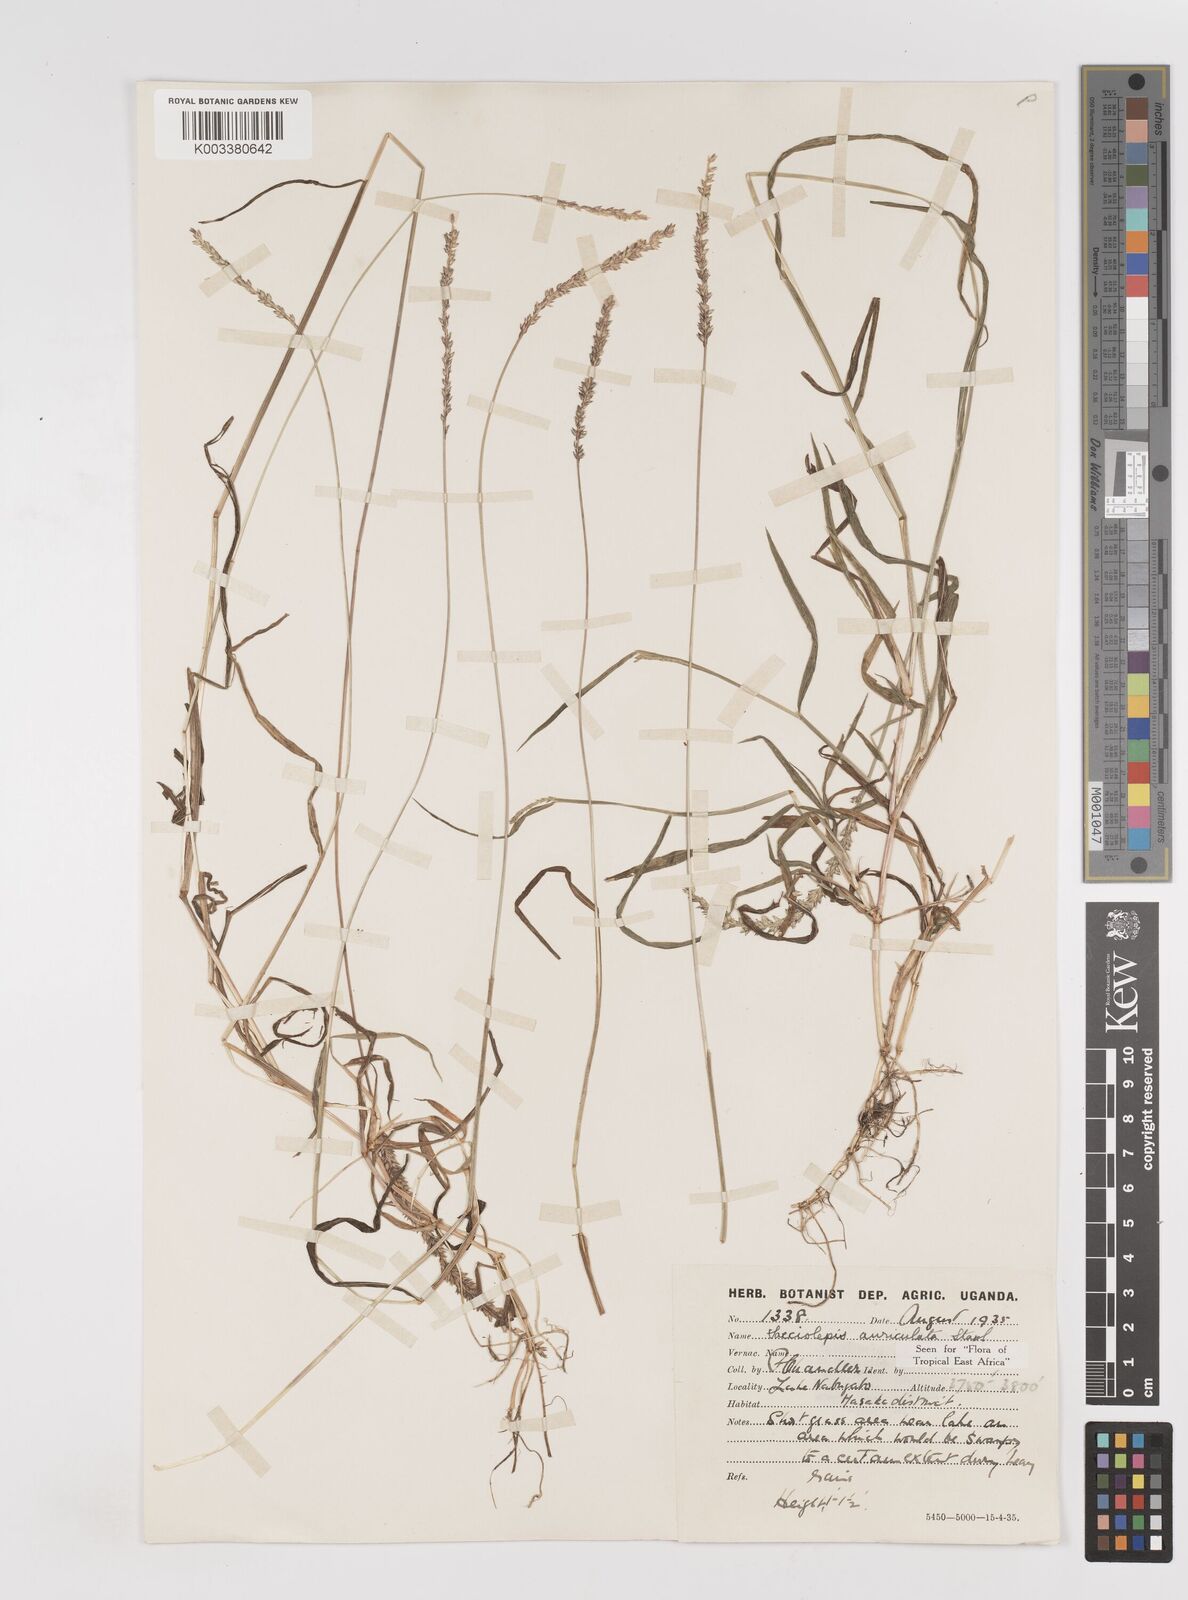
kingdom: Plantae
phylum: Tracheophyta
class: Liliopsida
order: Poales
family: Poaceae
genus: Sacciolepis
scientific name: Sacciolepis indica
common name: Glenwoodgrass
